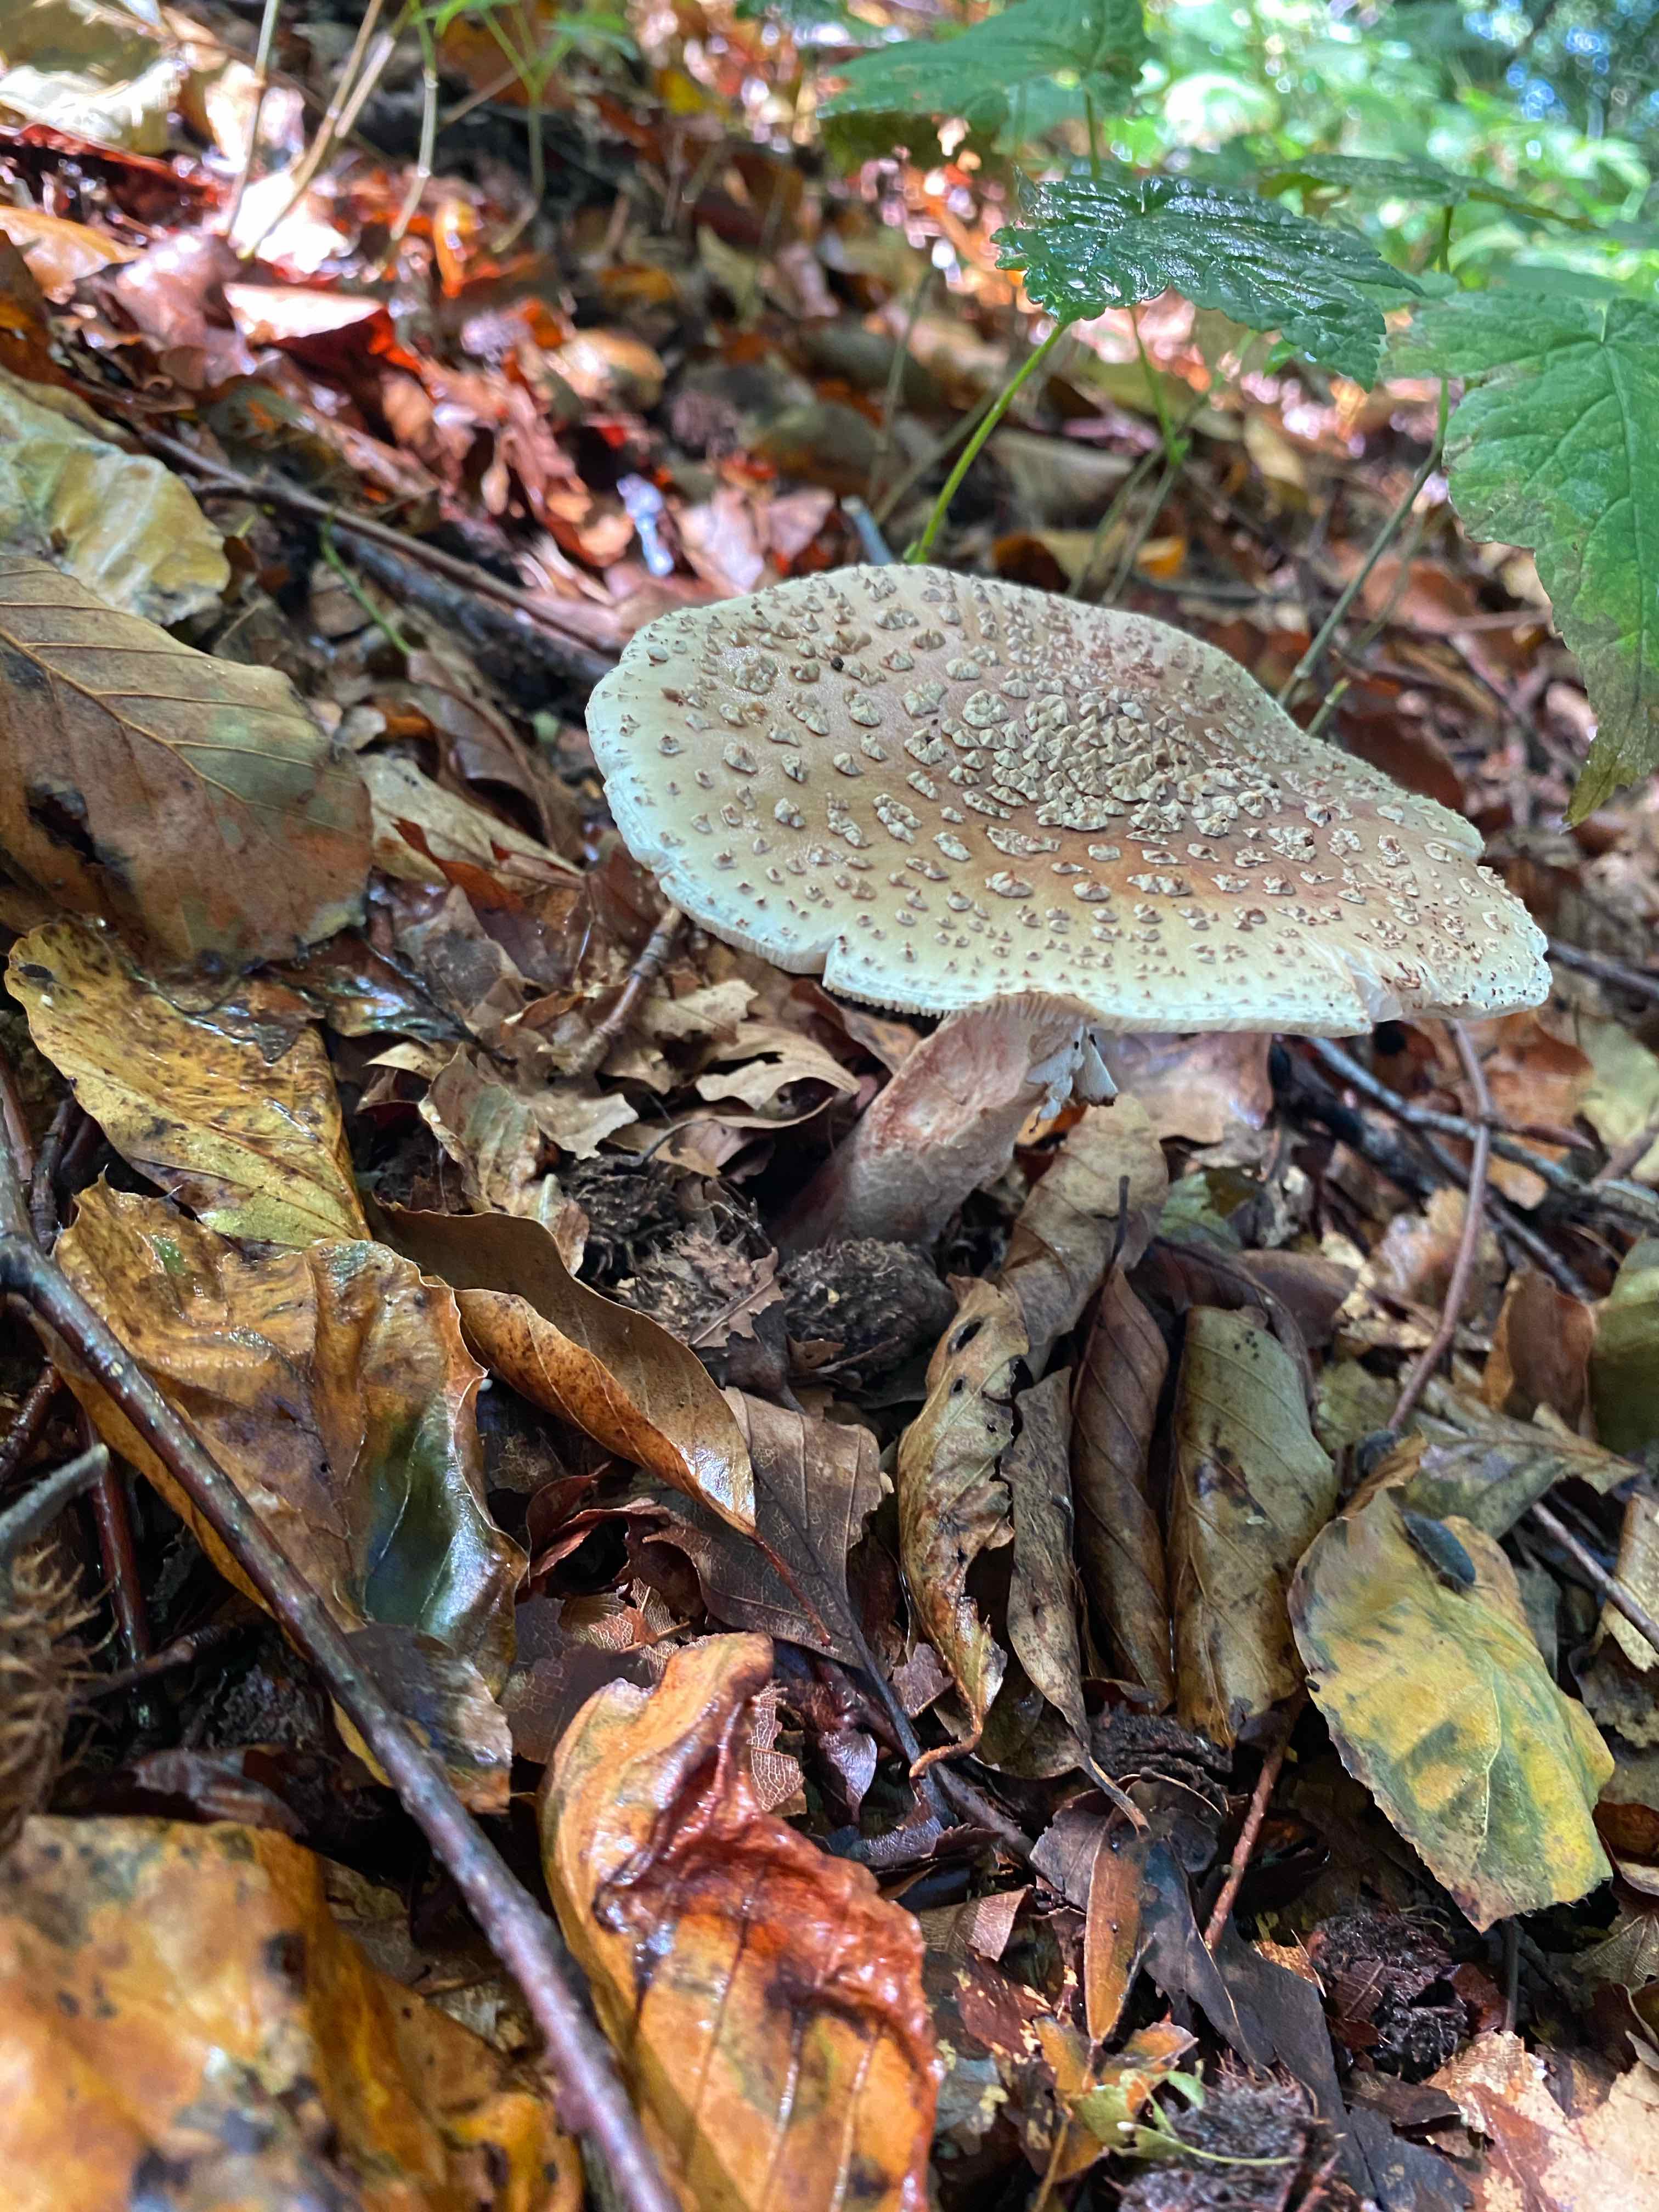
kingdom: Fungi
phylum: Basidiomycota
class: Agaricomycetes
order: Agaricales
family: Amanitaceae
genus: Amanita
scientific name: Amanita rubescens
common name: rødmende fluesvamp
